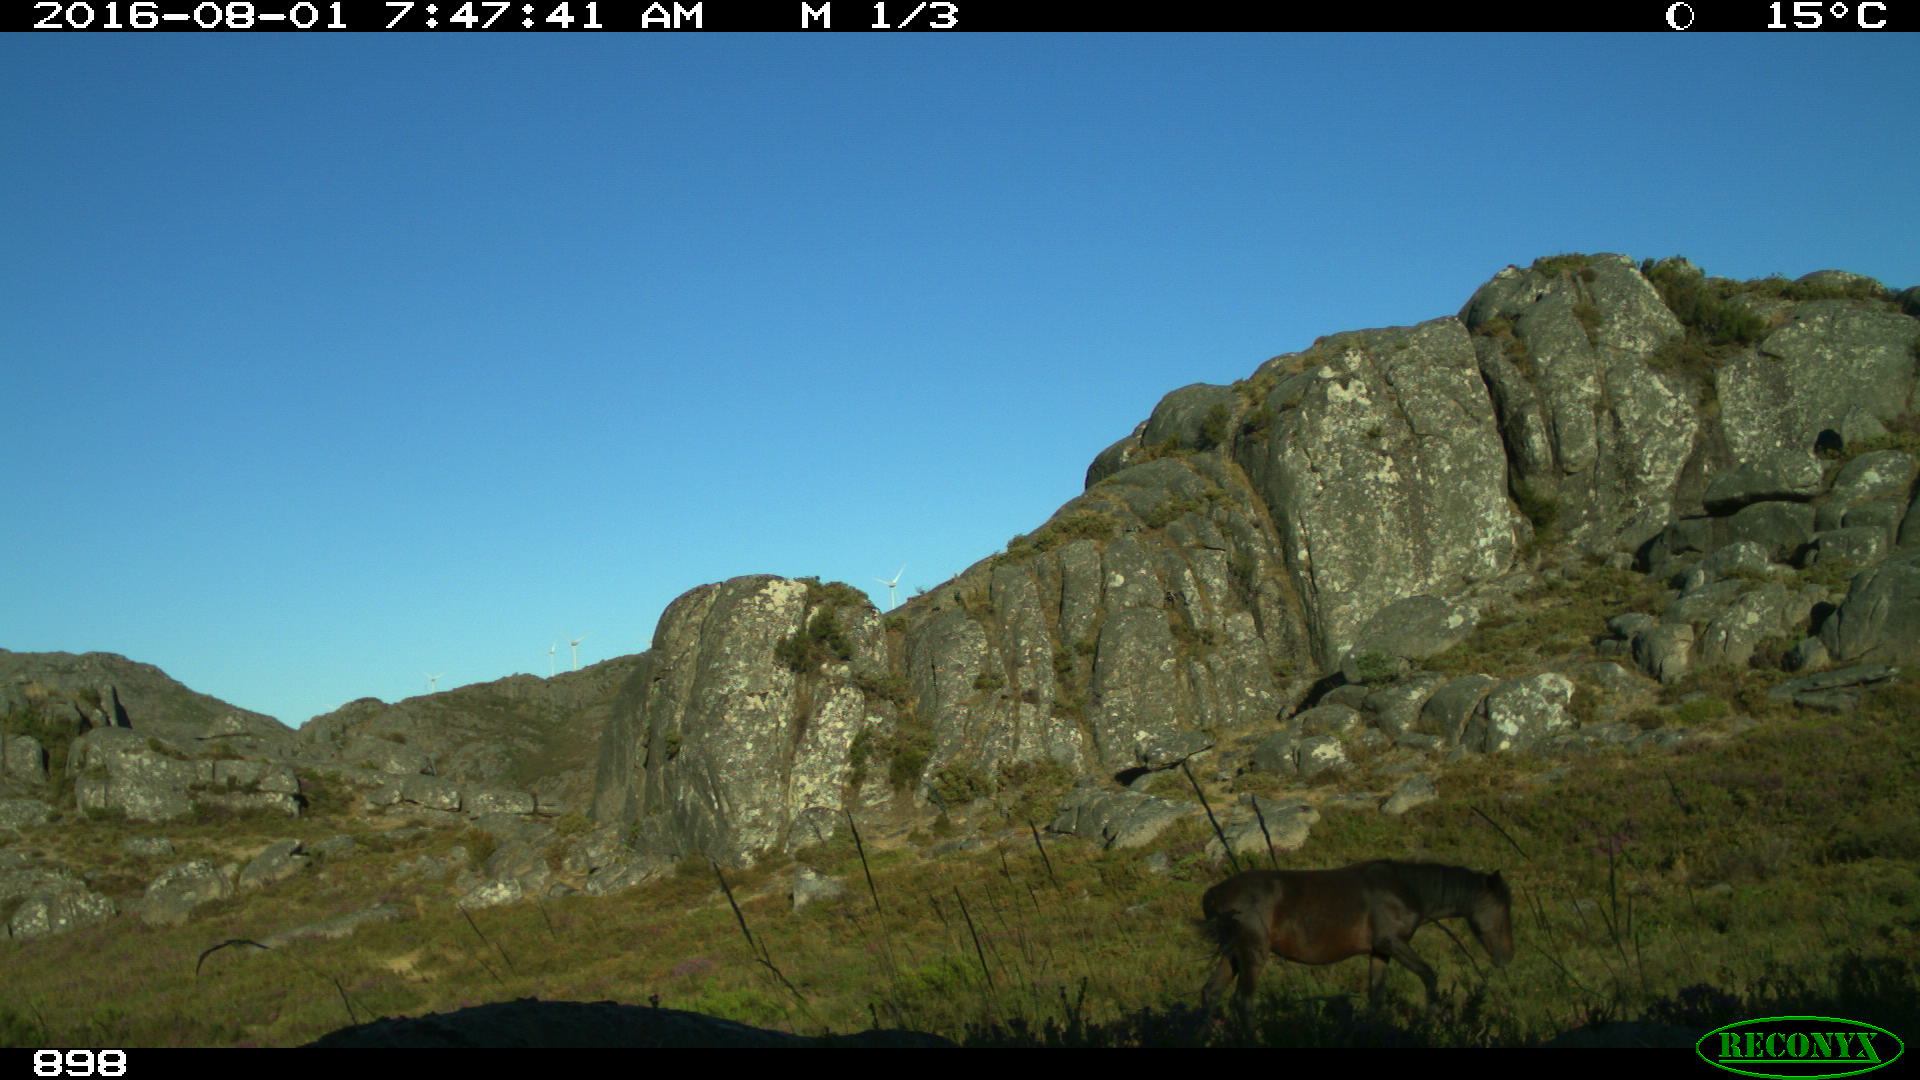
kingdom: Animalia
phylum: Chordata
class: Mammalia
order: Perissodactyla
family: Equidae
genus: Equus
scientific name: Equus caballus
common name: Horse
